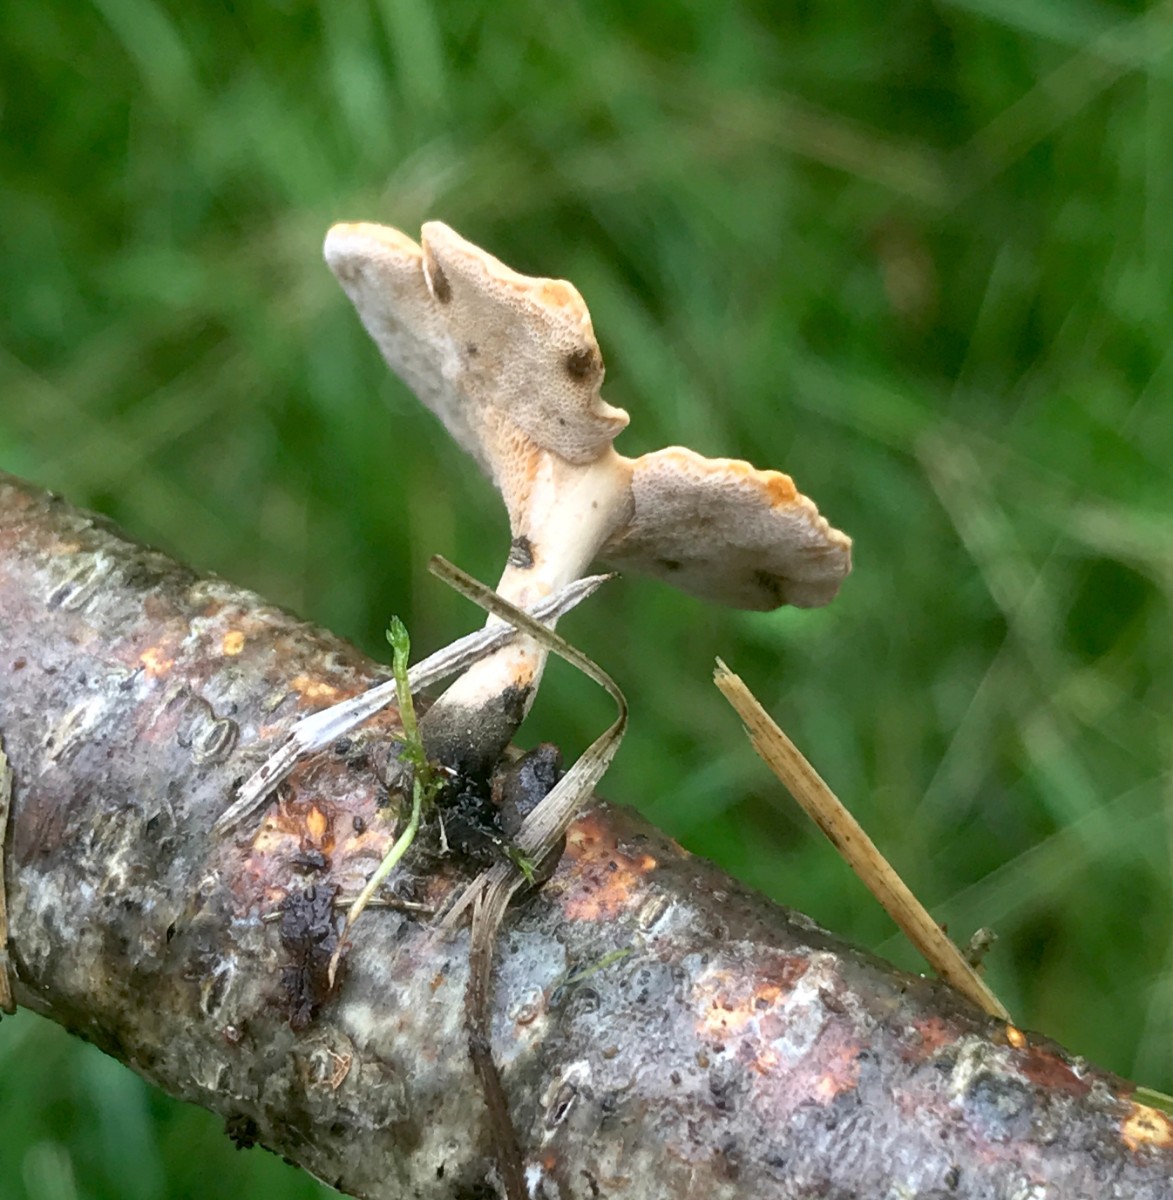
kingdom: Fungi
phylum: Basidiomycota
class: Agaricomycetes
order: Polyporales
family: Polyporaceae
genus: Cerioporus
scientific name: Cerioporus varius
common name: foranderlig stilkporesvamp
